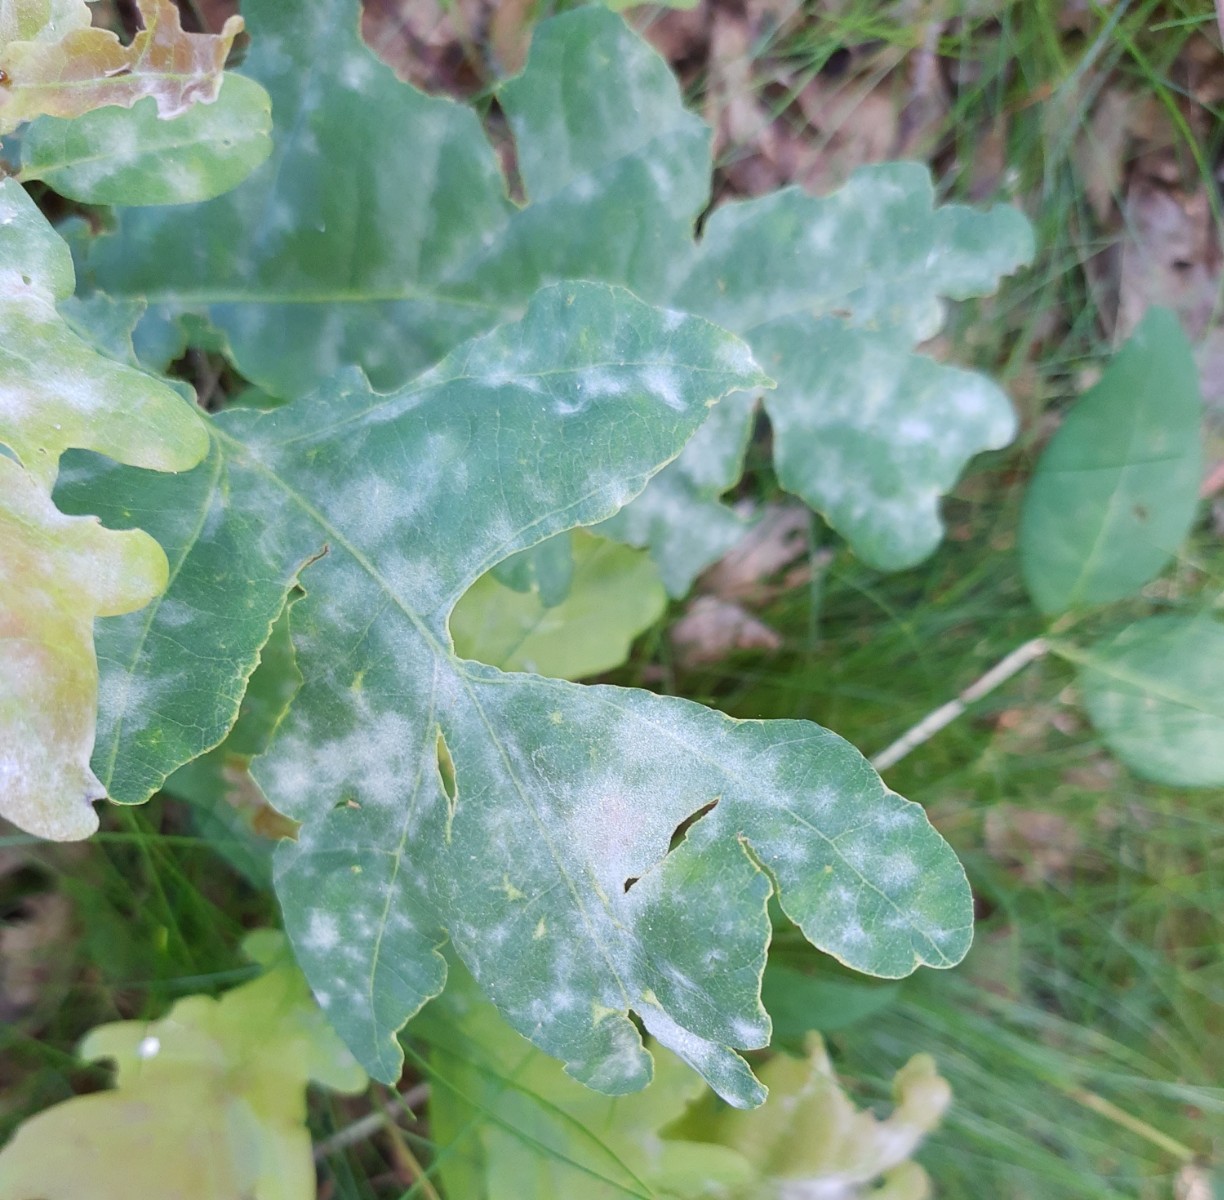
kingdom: Fungi
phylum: Ascomycota
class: Leotiomycetes
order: Helotiales
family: Erysiphaceae
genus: Erysiphe
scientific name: Erysiphe alphitoides
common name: ege-meldug
